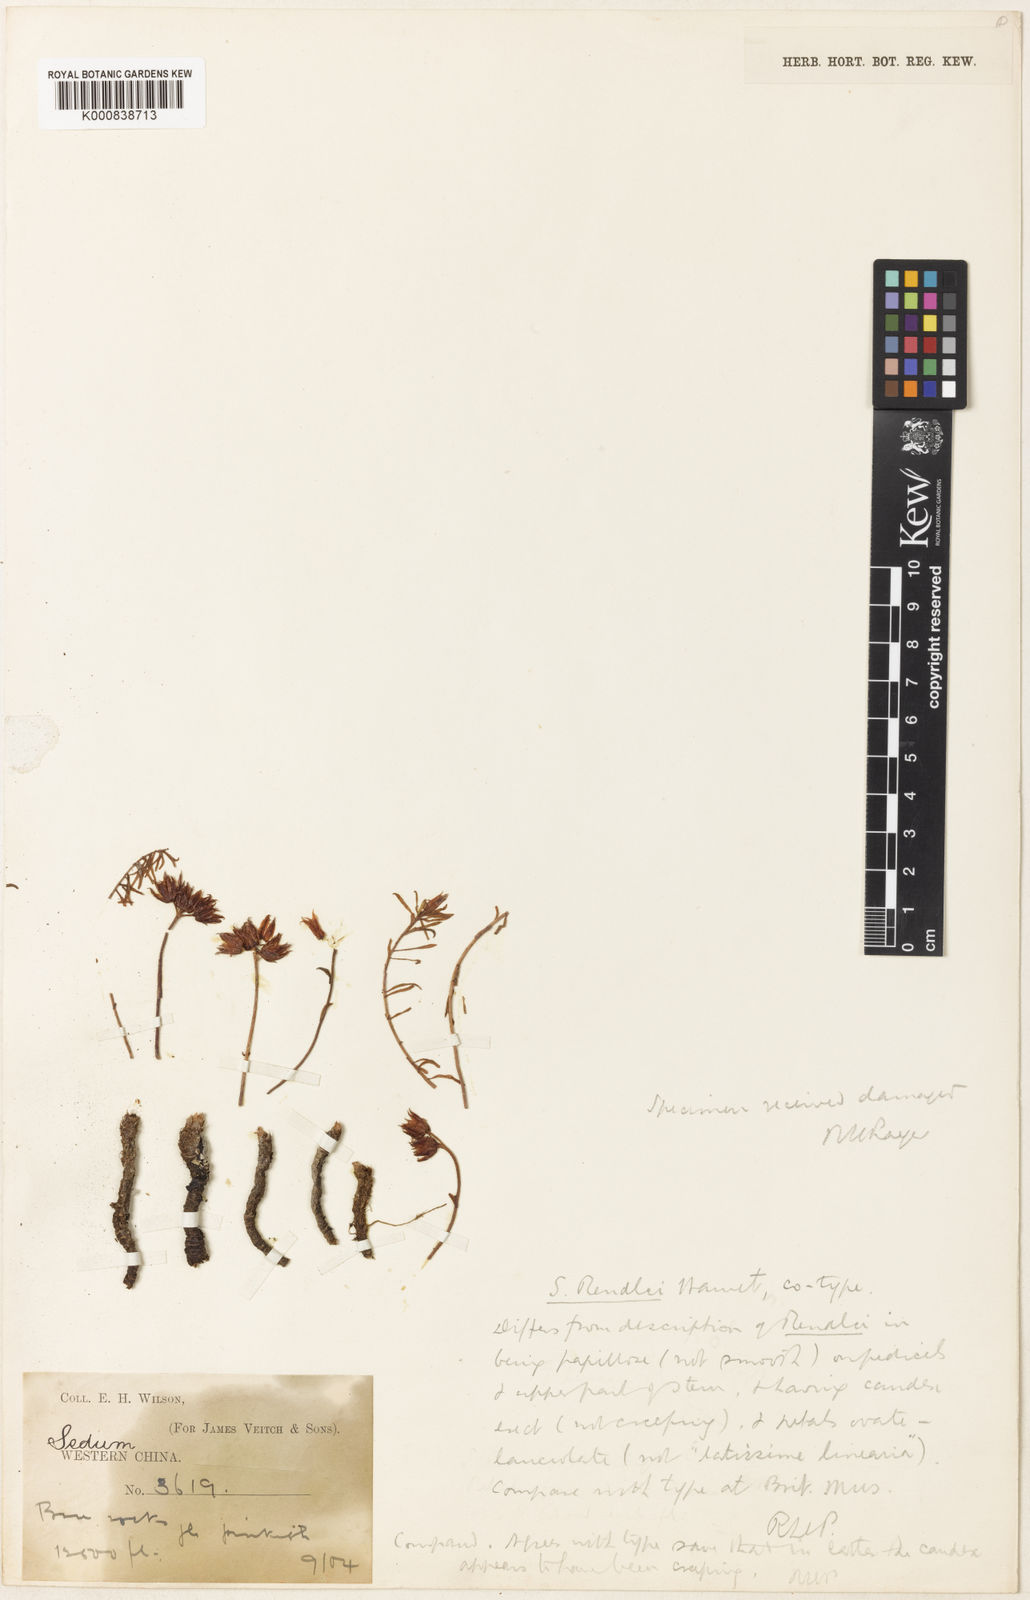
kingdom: Plantae
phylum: Tracheophyta
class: Magnoliopsida
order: Saxifragales
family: Crassulaceae
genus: Rhodiola
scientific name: Rhodiola dumulosa
